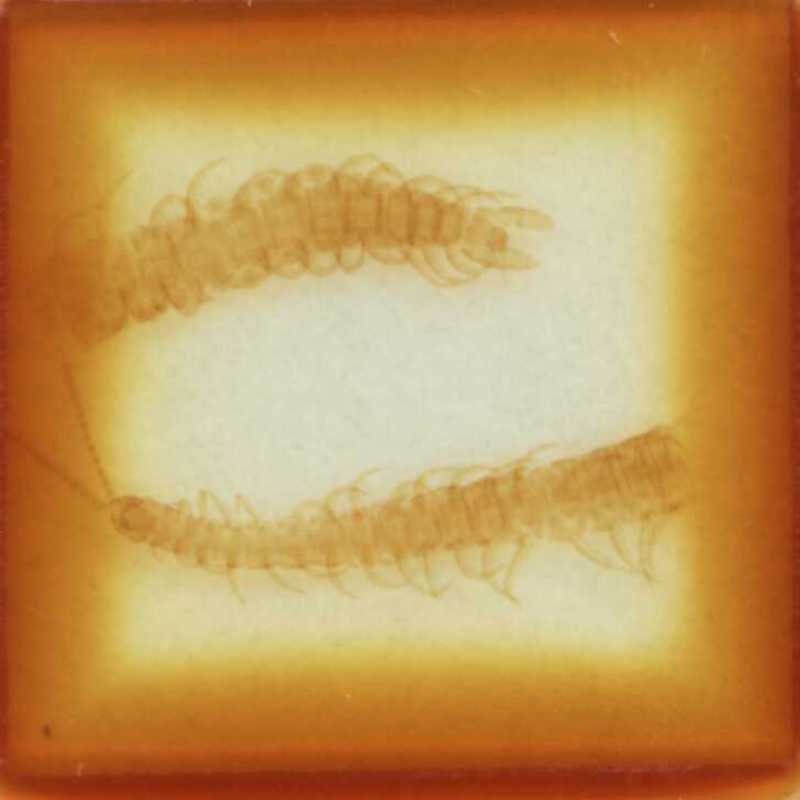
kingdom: Animalia
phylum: Arthropoda
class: Chilopoda
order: Geophilomorpha
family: Linotaeniidae
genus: Strigamia
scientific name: Strigamia crassipes
